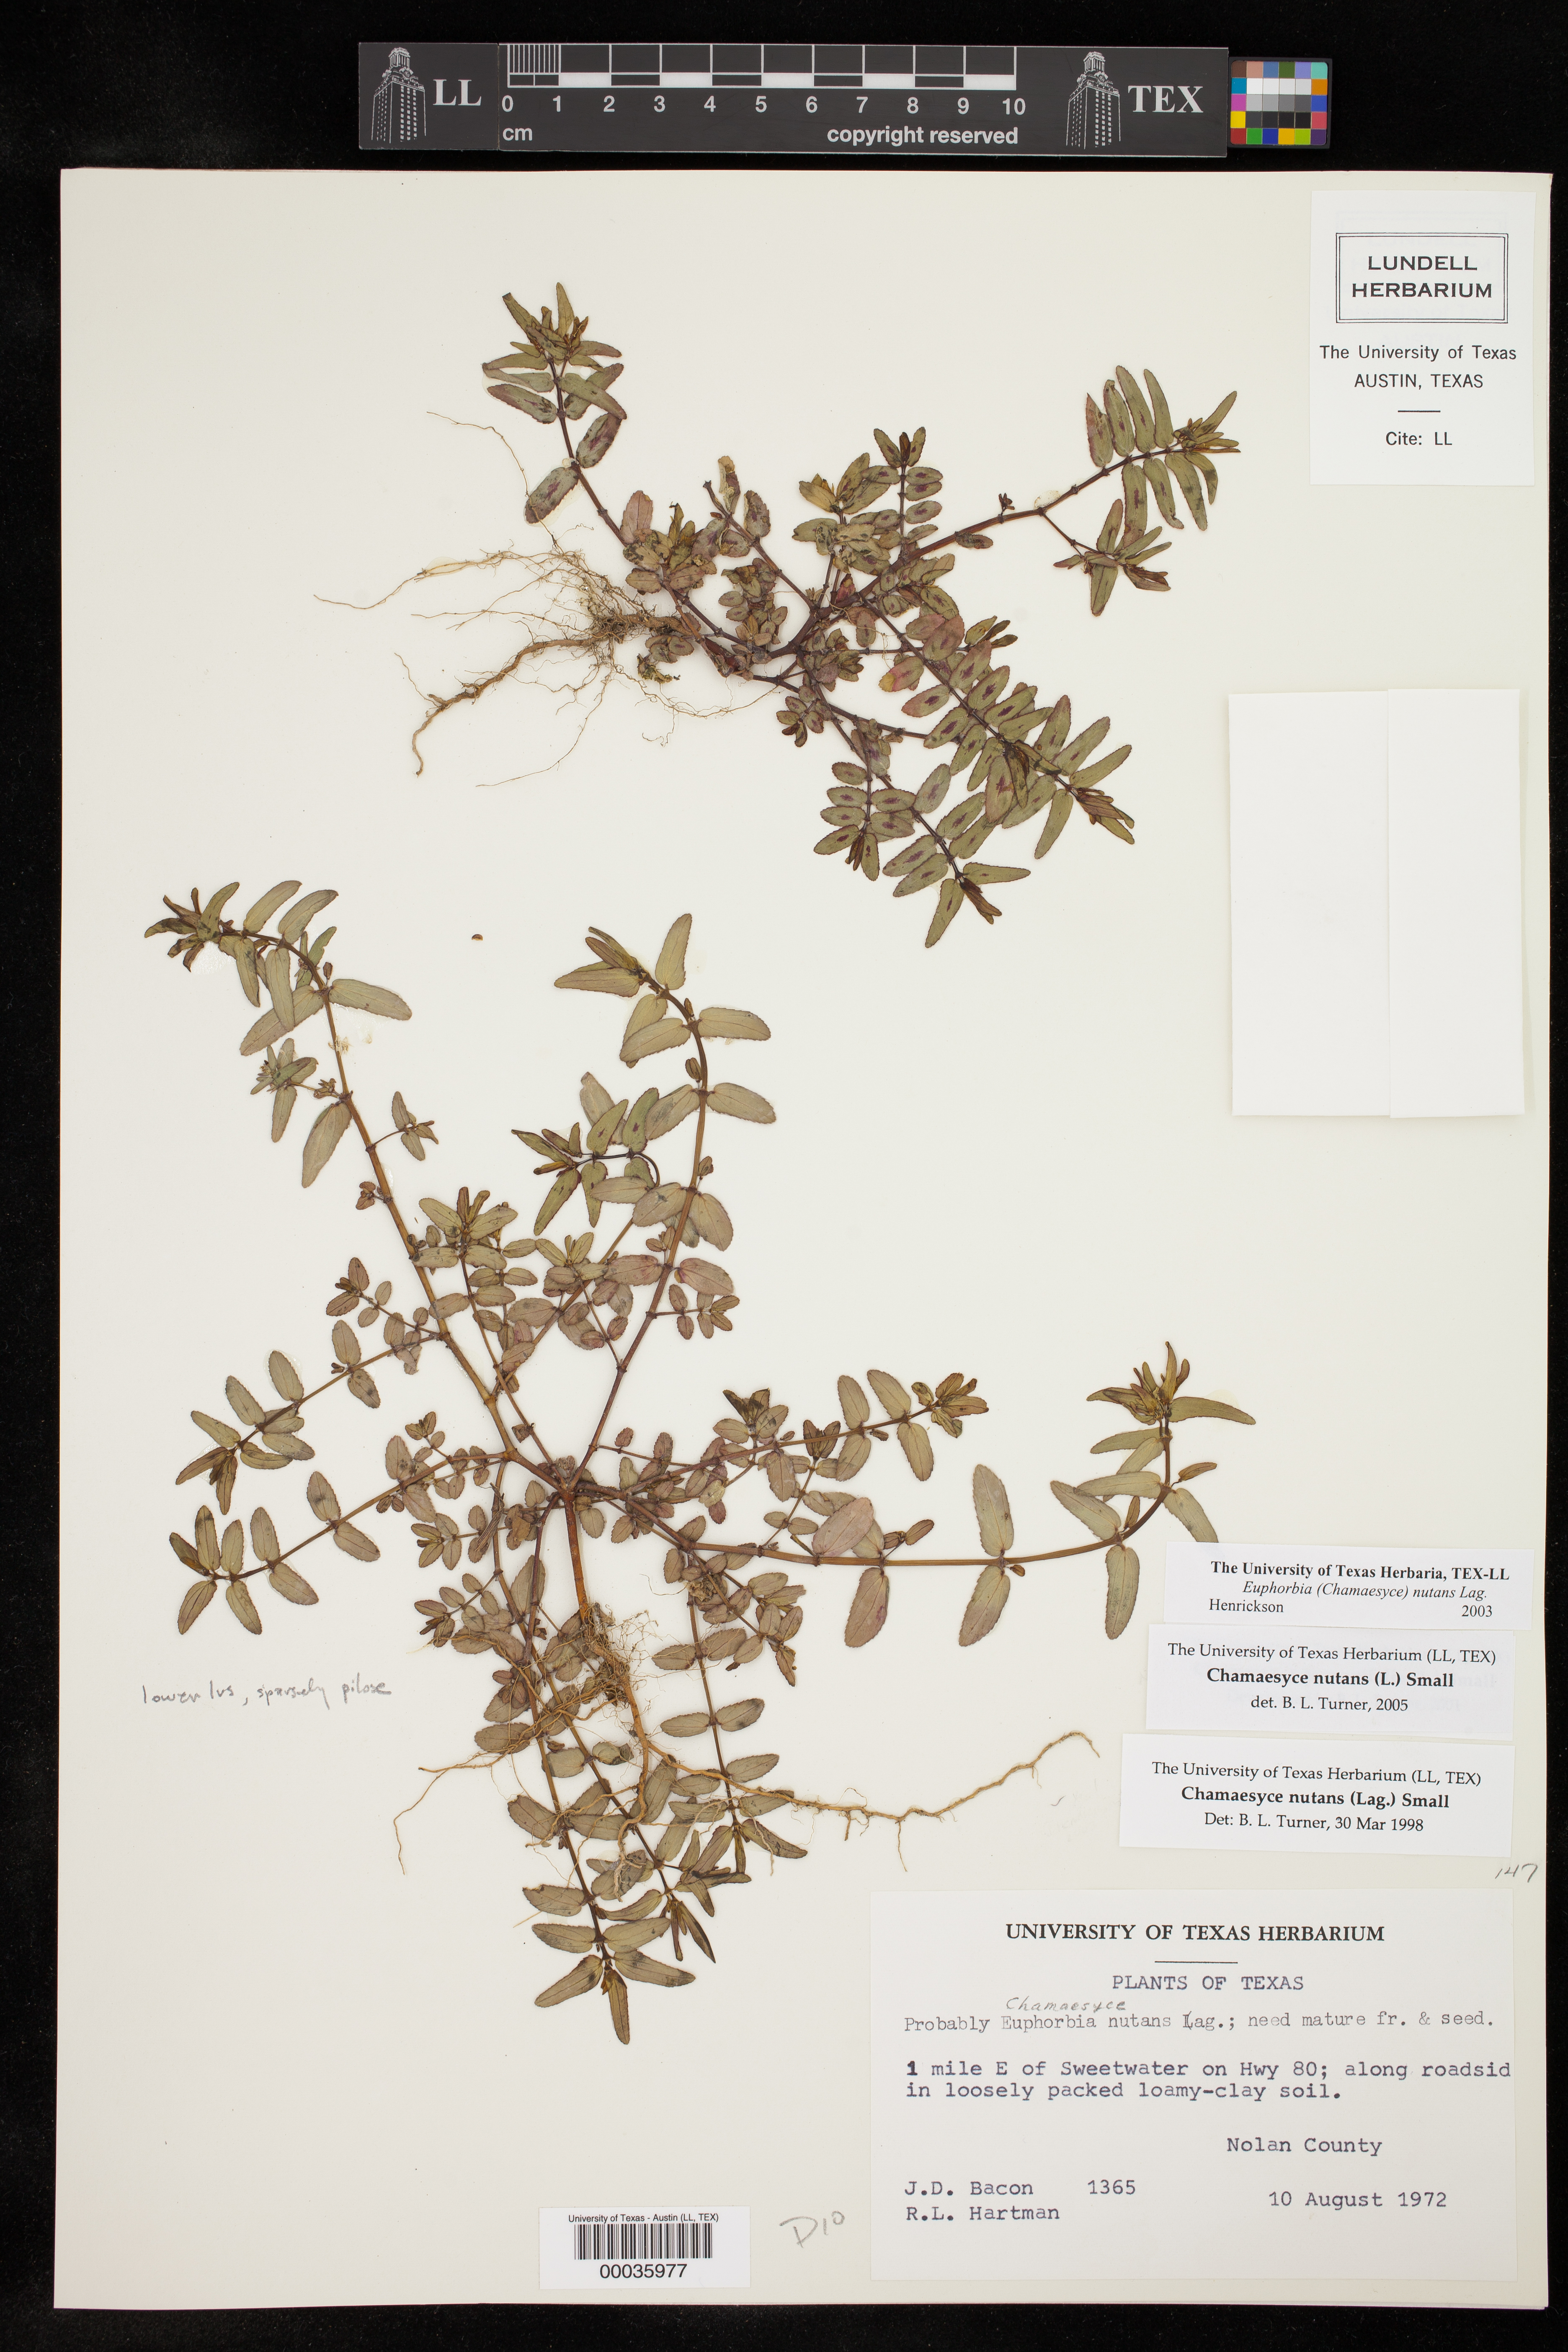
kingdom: Plantae
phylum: Tracheophyta
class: Magnoliopsida
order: Malpighiales
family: Euphorbiaceae
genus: Euphorbia
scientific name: Euphorbia nutans
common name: Eyebane
